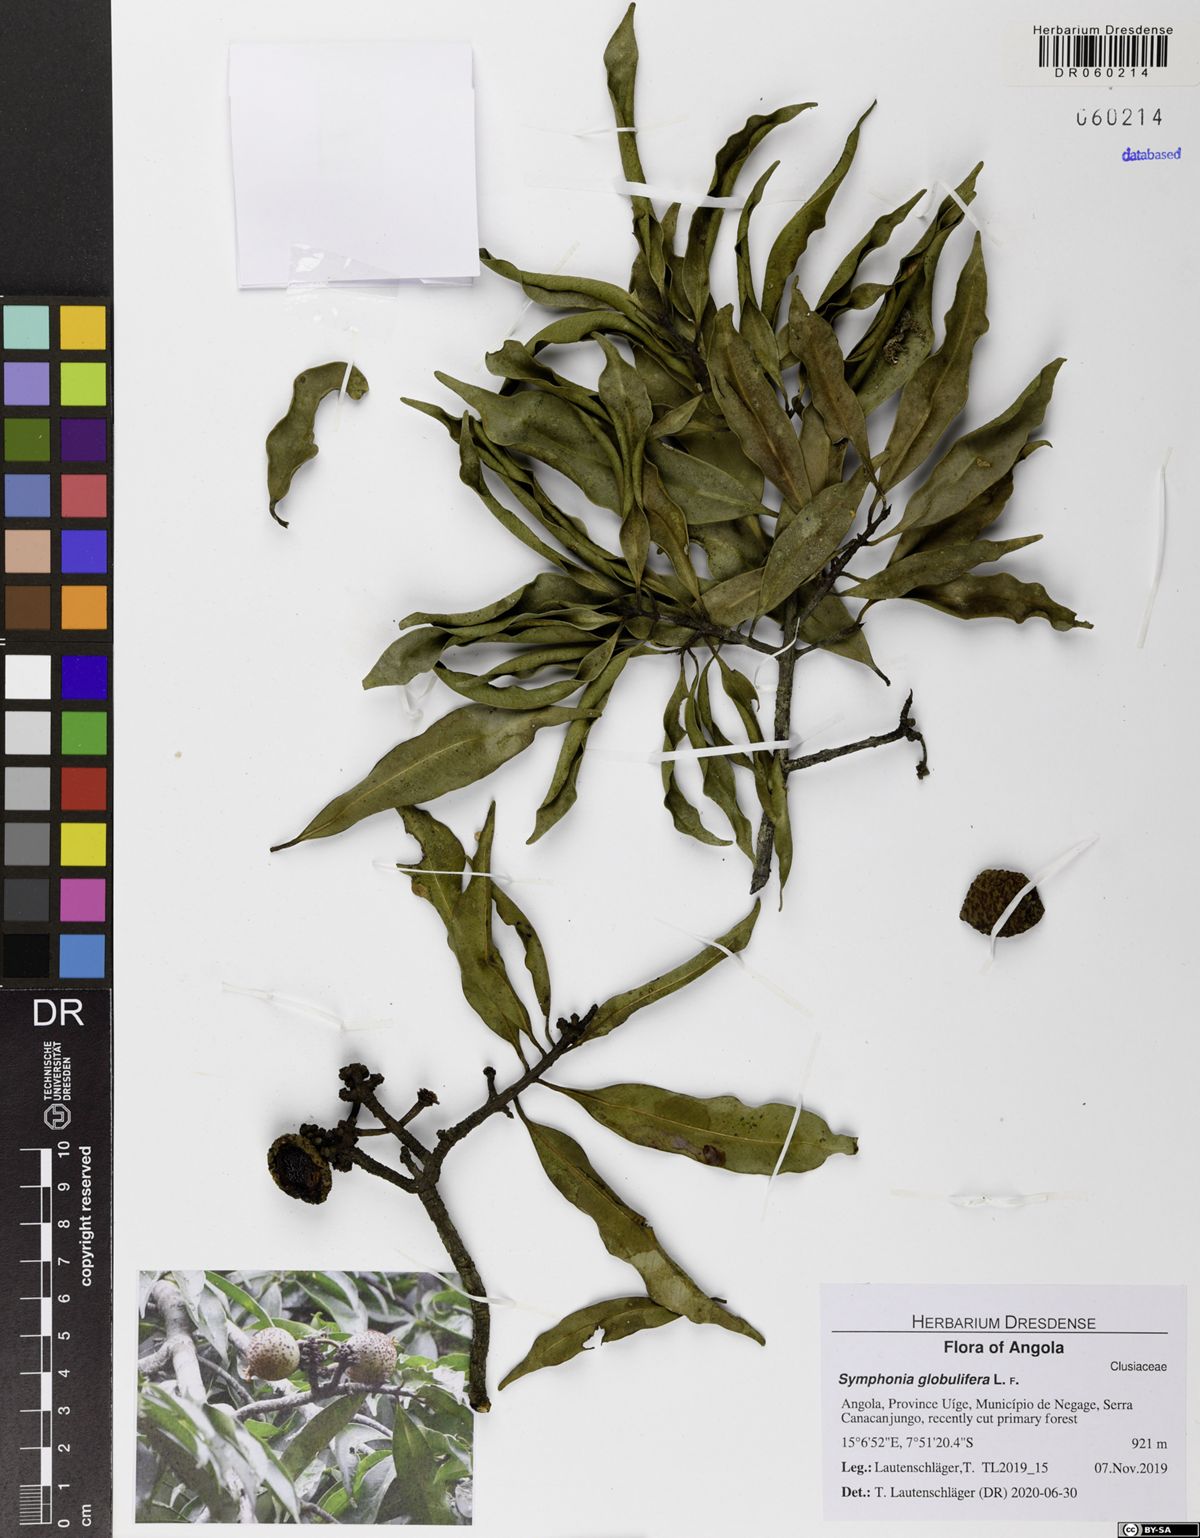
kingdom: Plantae
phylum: Tracheophyta
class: Magnoliopsida
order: Malpighiales
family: Clusiaceae
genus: Symphonia
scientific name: Symphonia globulifera
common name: Boarwood
